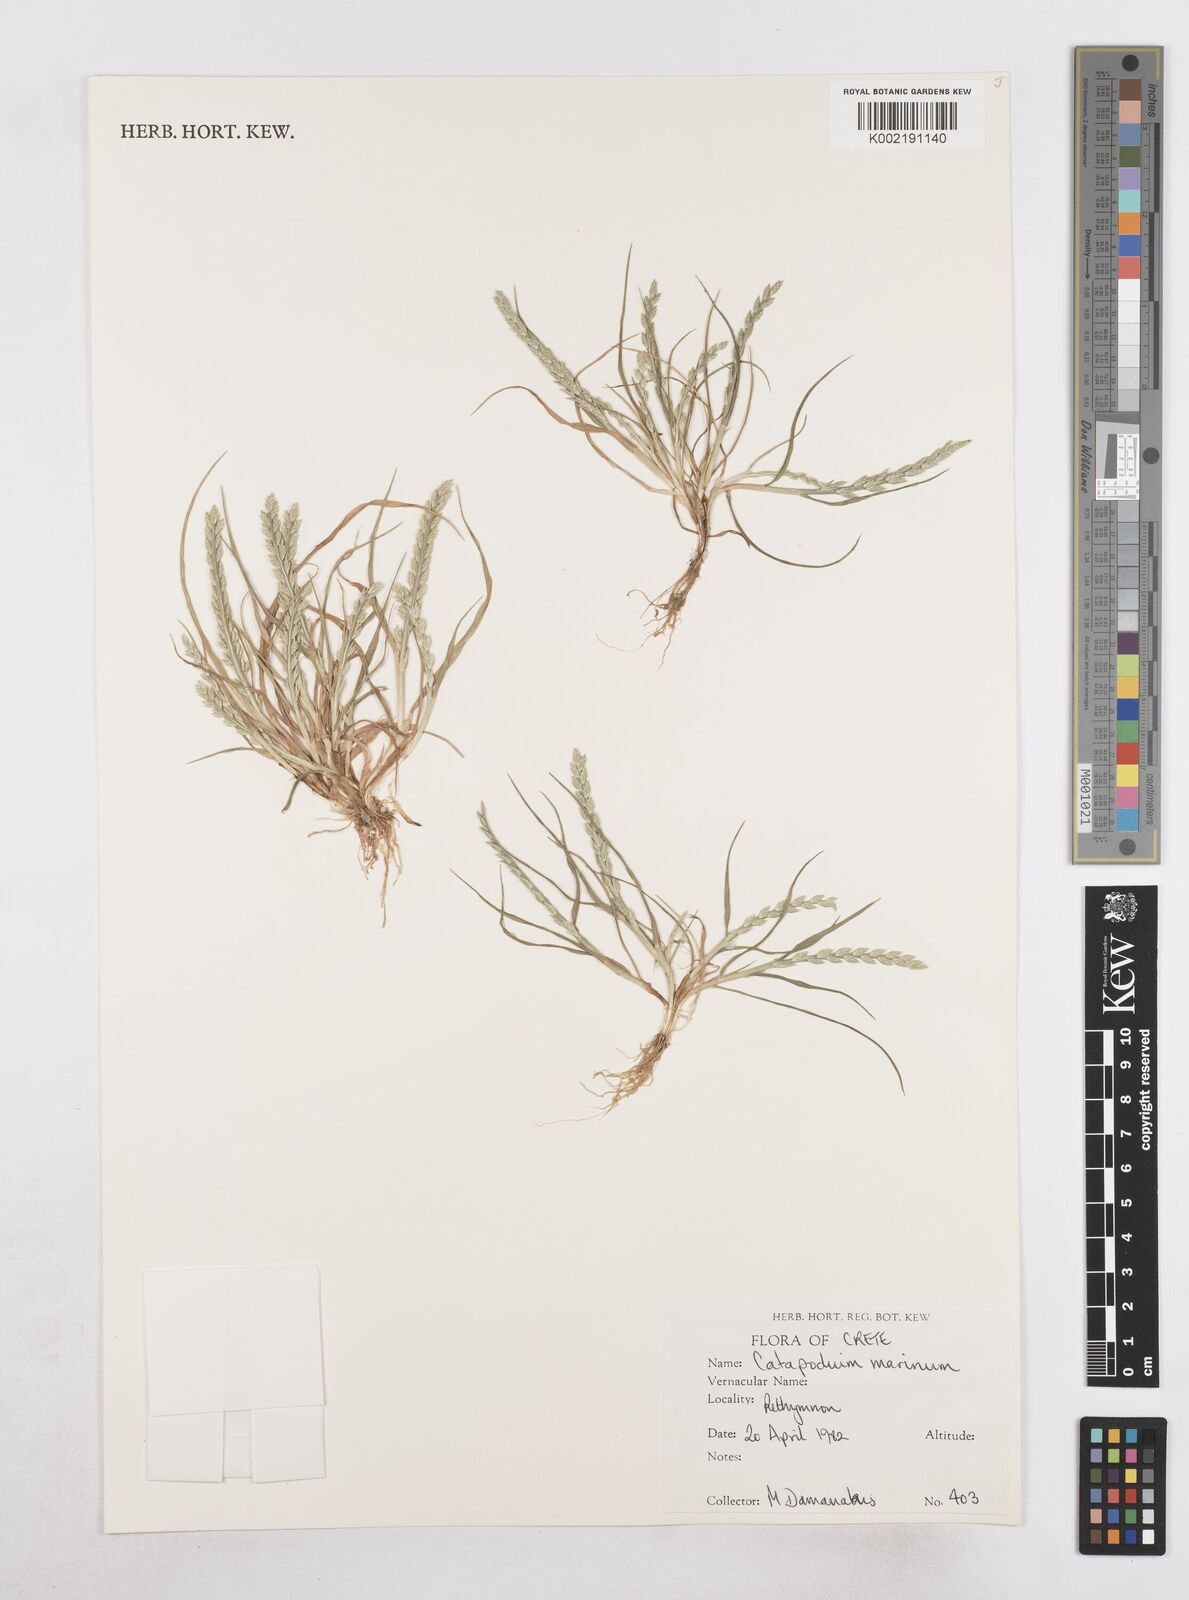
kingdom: Plantae
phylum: Tracheophyta
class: Liliopsida
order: Poales
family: Poaceae
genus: Catapodium
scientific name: Catapodium marinum
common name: Sea fern-grass
